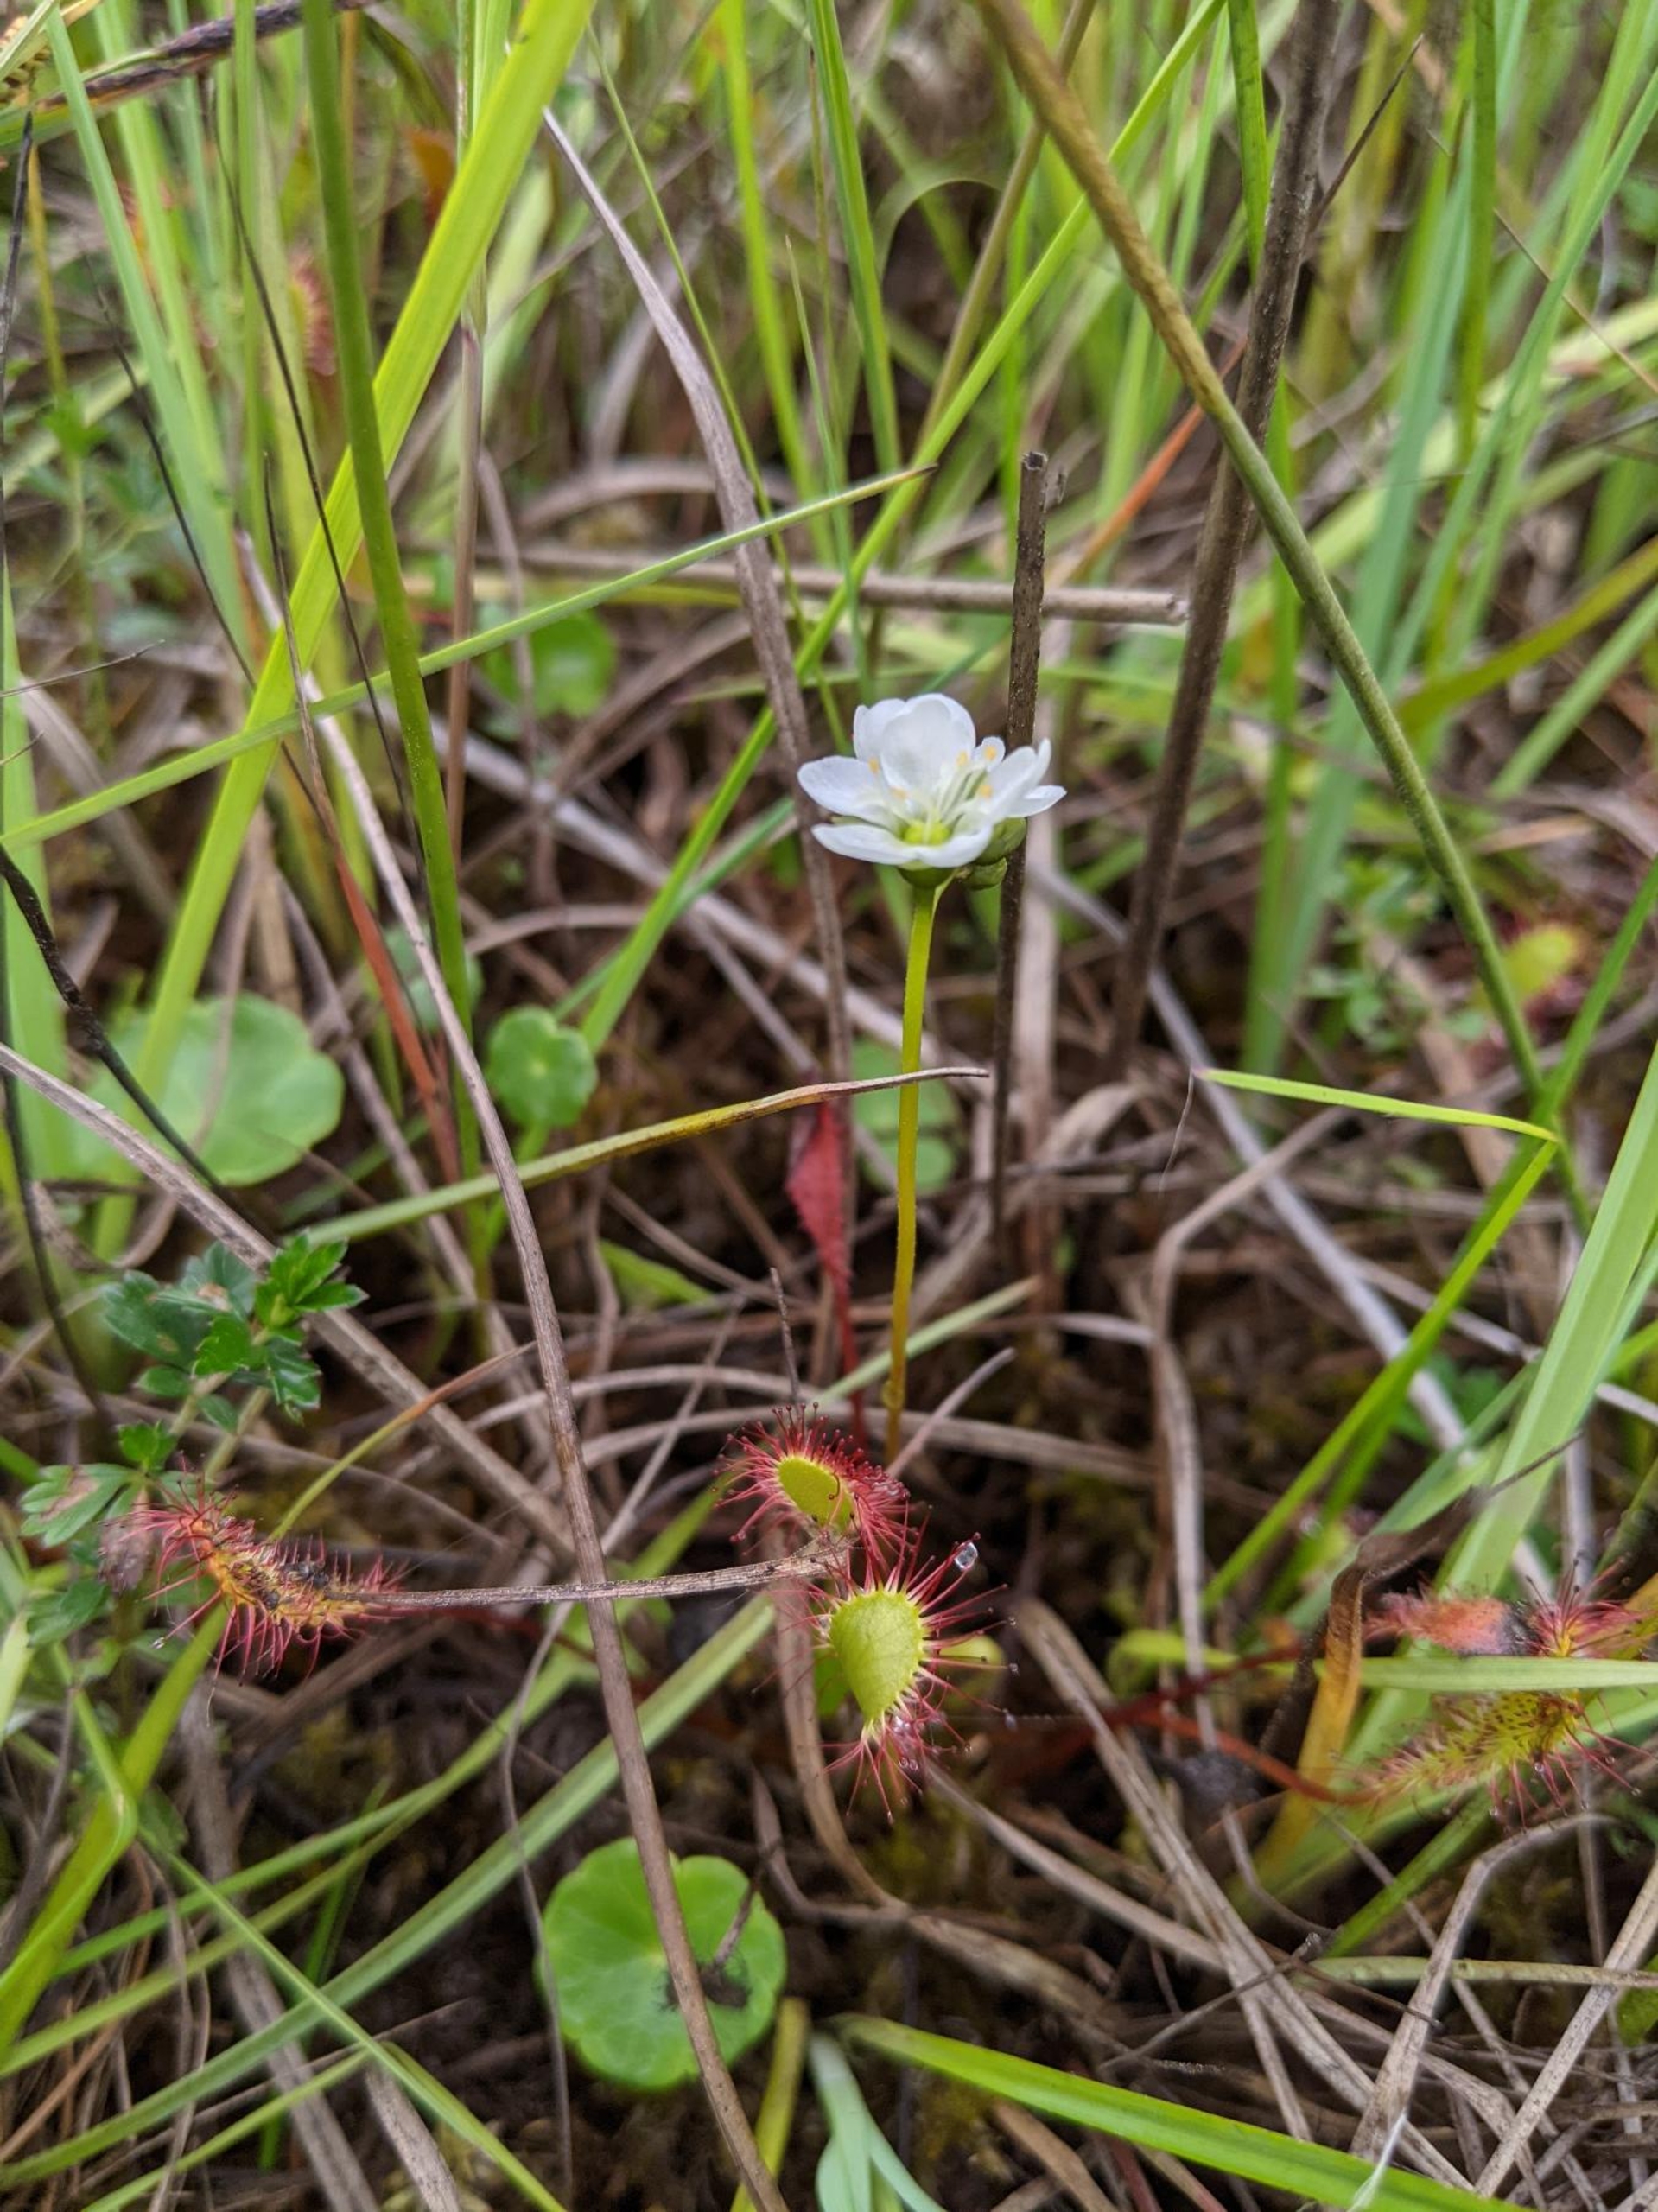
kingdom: Plantae
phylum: Tracheophyta
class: Magnoliopsida
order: Caryophyllales
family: Droseraceae
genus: Drosera
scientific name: Drosera anglica
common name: Langbladet soldug
